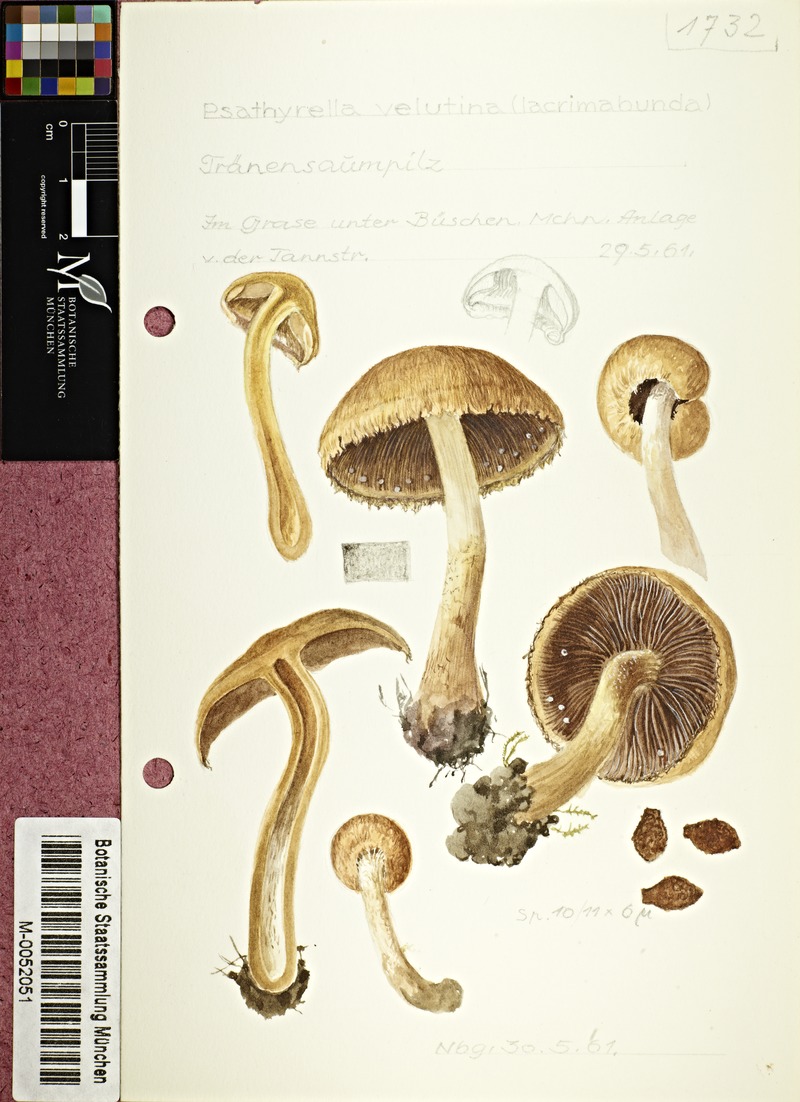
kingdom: Fungi
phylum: Basidiomycota
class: Agaricomycetes
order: Agaricales
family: Psathyrellaceae
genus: Lacrymaria
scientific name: Lacrymaria lacrymabunda
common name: Weeping widow
